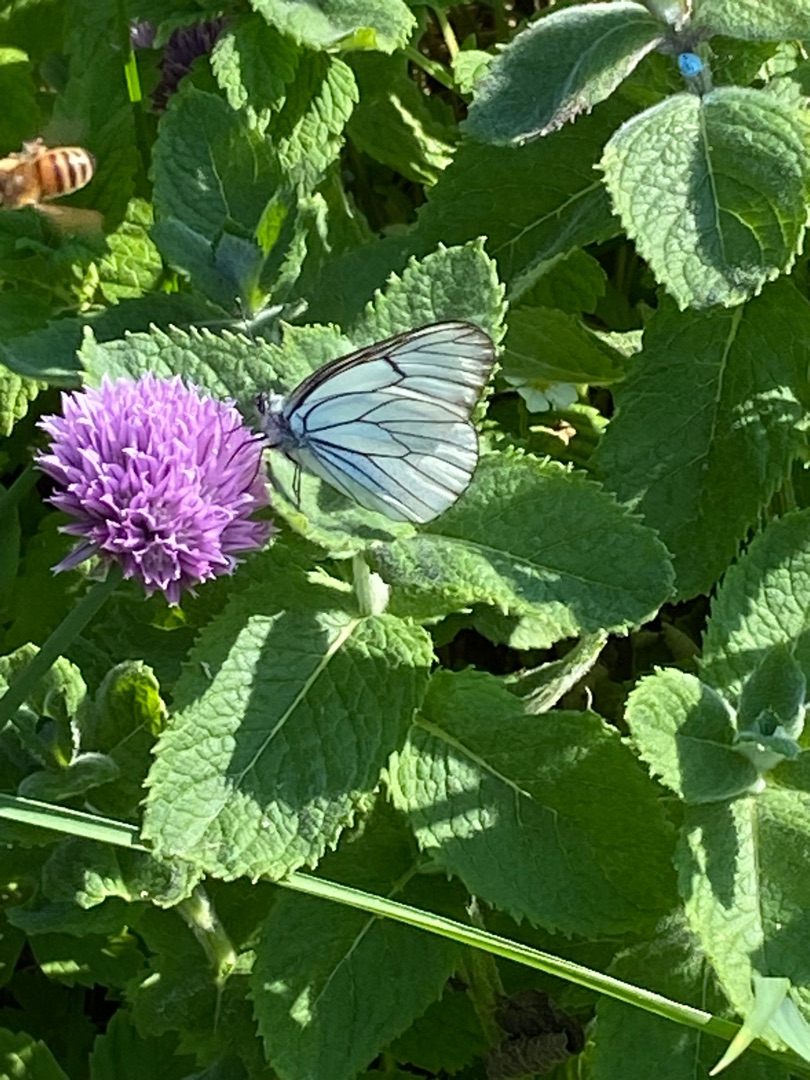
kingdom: Animalia
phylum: Arthropoda
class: Insecta
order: Lepidoptera
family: Pieridae
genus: Aporia
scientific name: Aporia crataegi
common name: Sortåret hvidvinge
